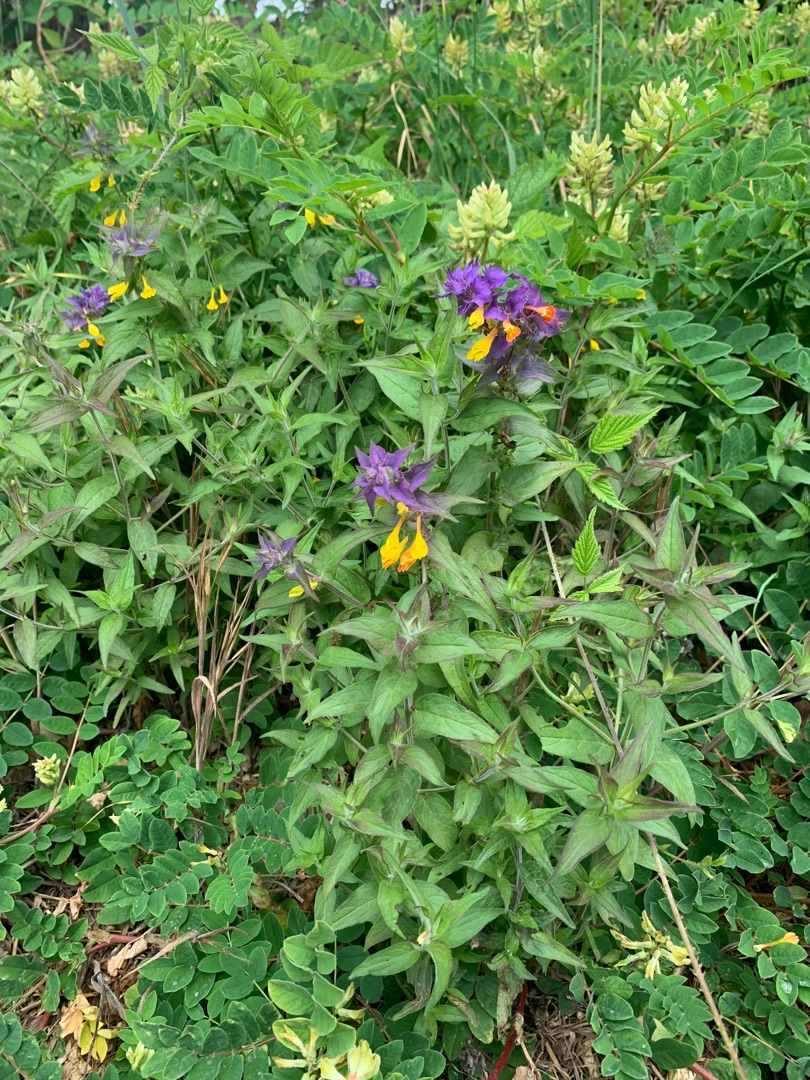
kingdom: Plantae
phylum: Tracheophyta
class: Magnoliopsida
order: Lamiales
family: Orobanchaceae
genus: Melampyrum
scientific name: Melampyrum nemorosum
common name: Blåtoppet kohvede
